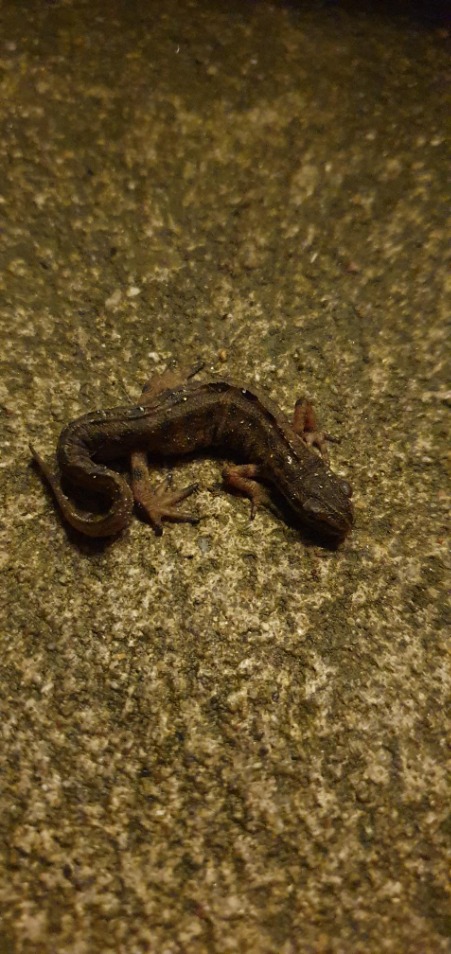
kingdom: Animalia
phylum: Chordata
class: Amphibia
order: Caudata
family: Salamandridae
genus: Lissotriton
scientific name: Lissotriton vulgaris
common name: Lille vandsalamander
